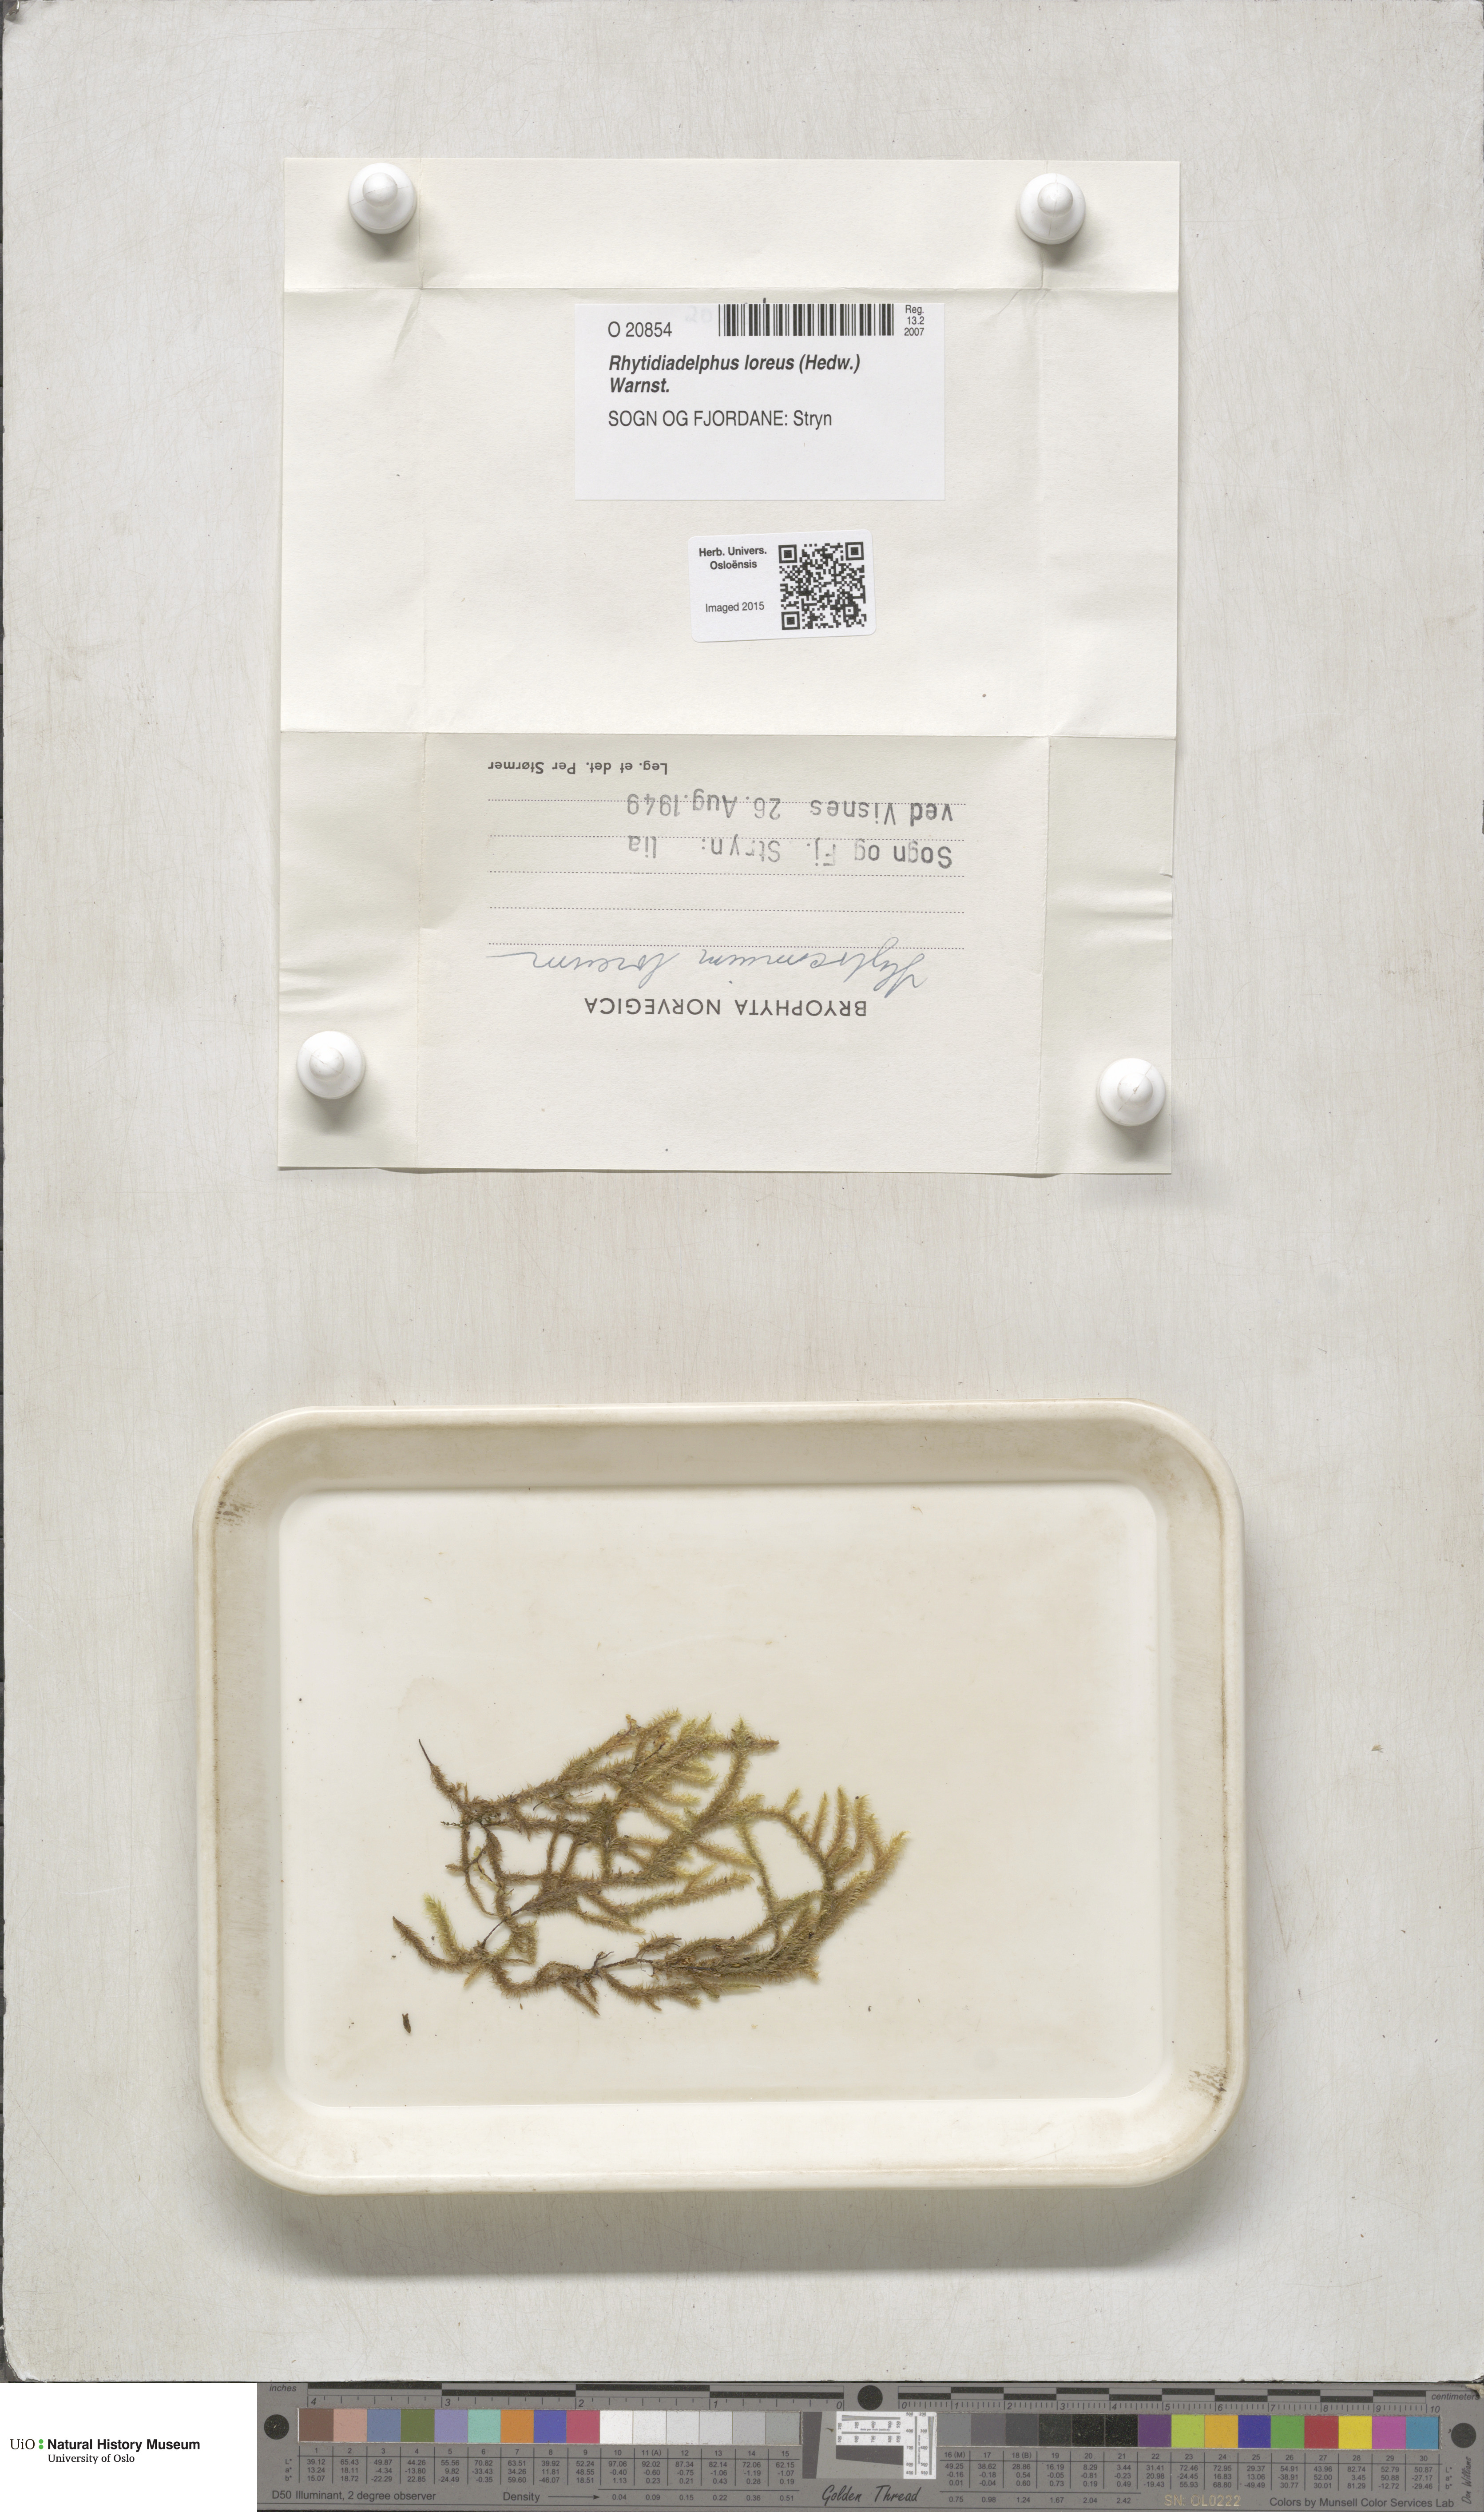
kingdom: Plantae
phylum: Bryophyta
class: Bryopsida
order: Hypnales
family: Hylocomiaceae
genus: Rhytidiadelphus
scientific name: Rhytidiadelphus loreus
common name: Lanky moss
